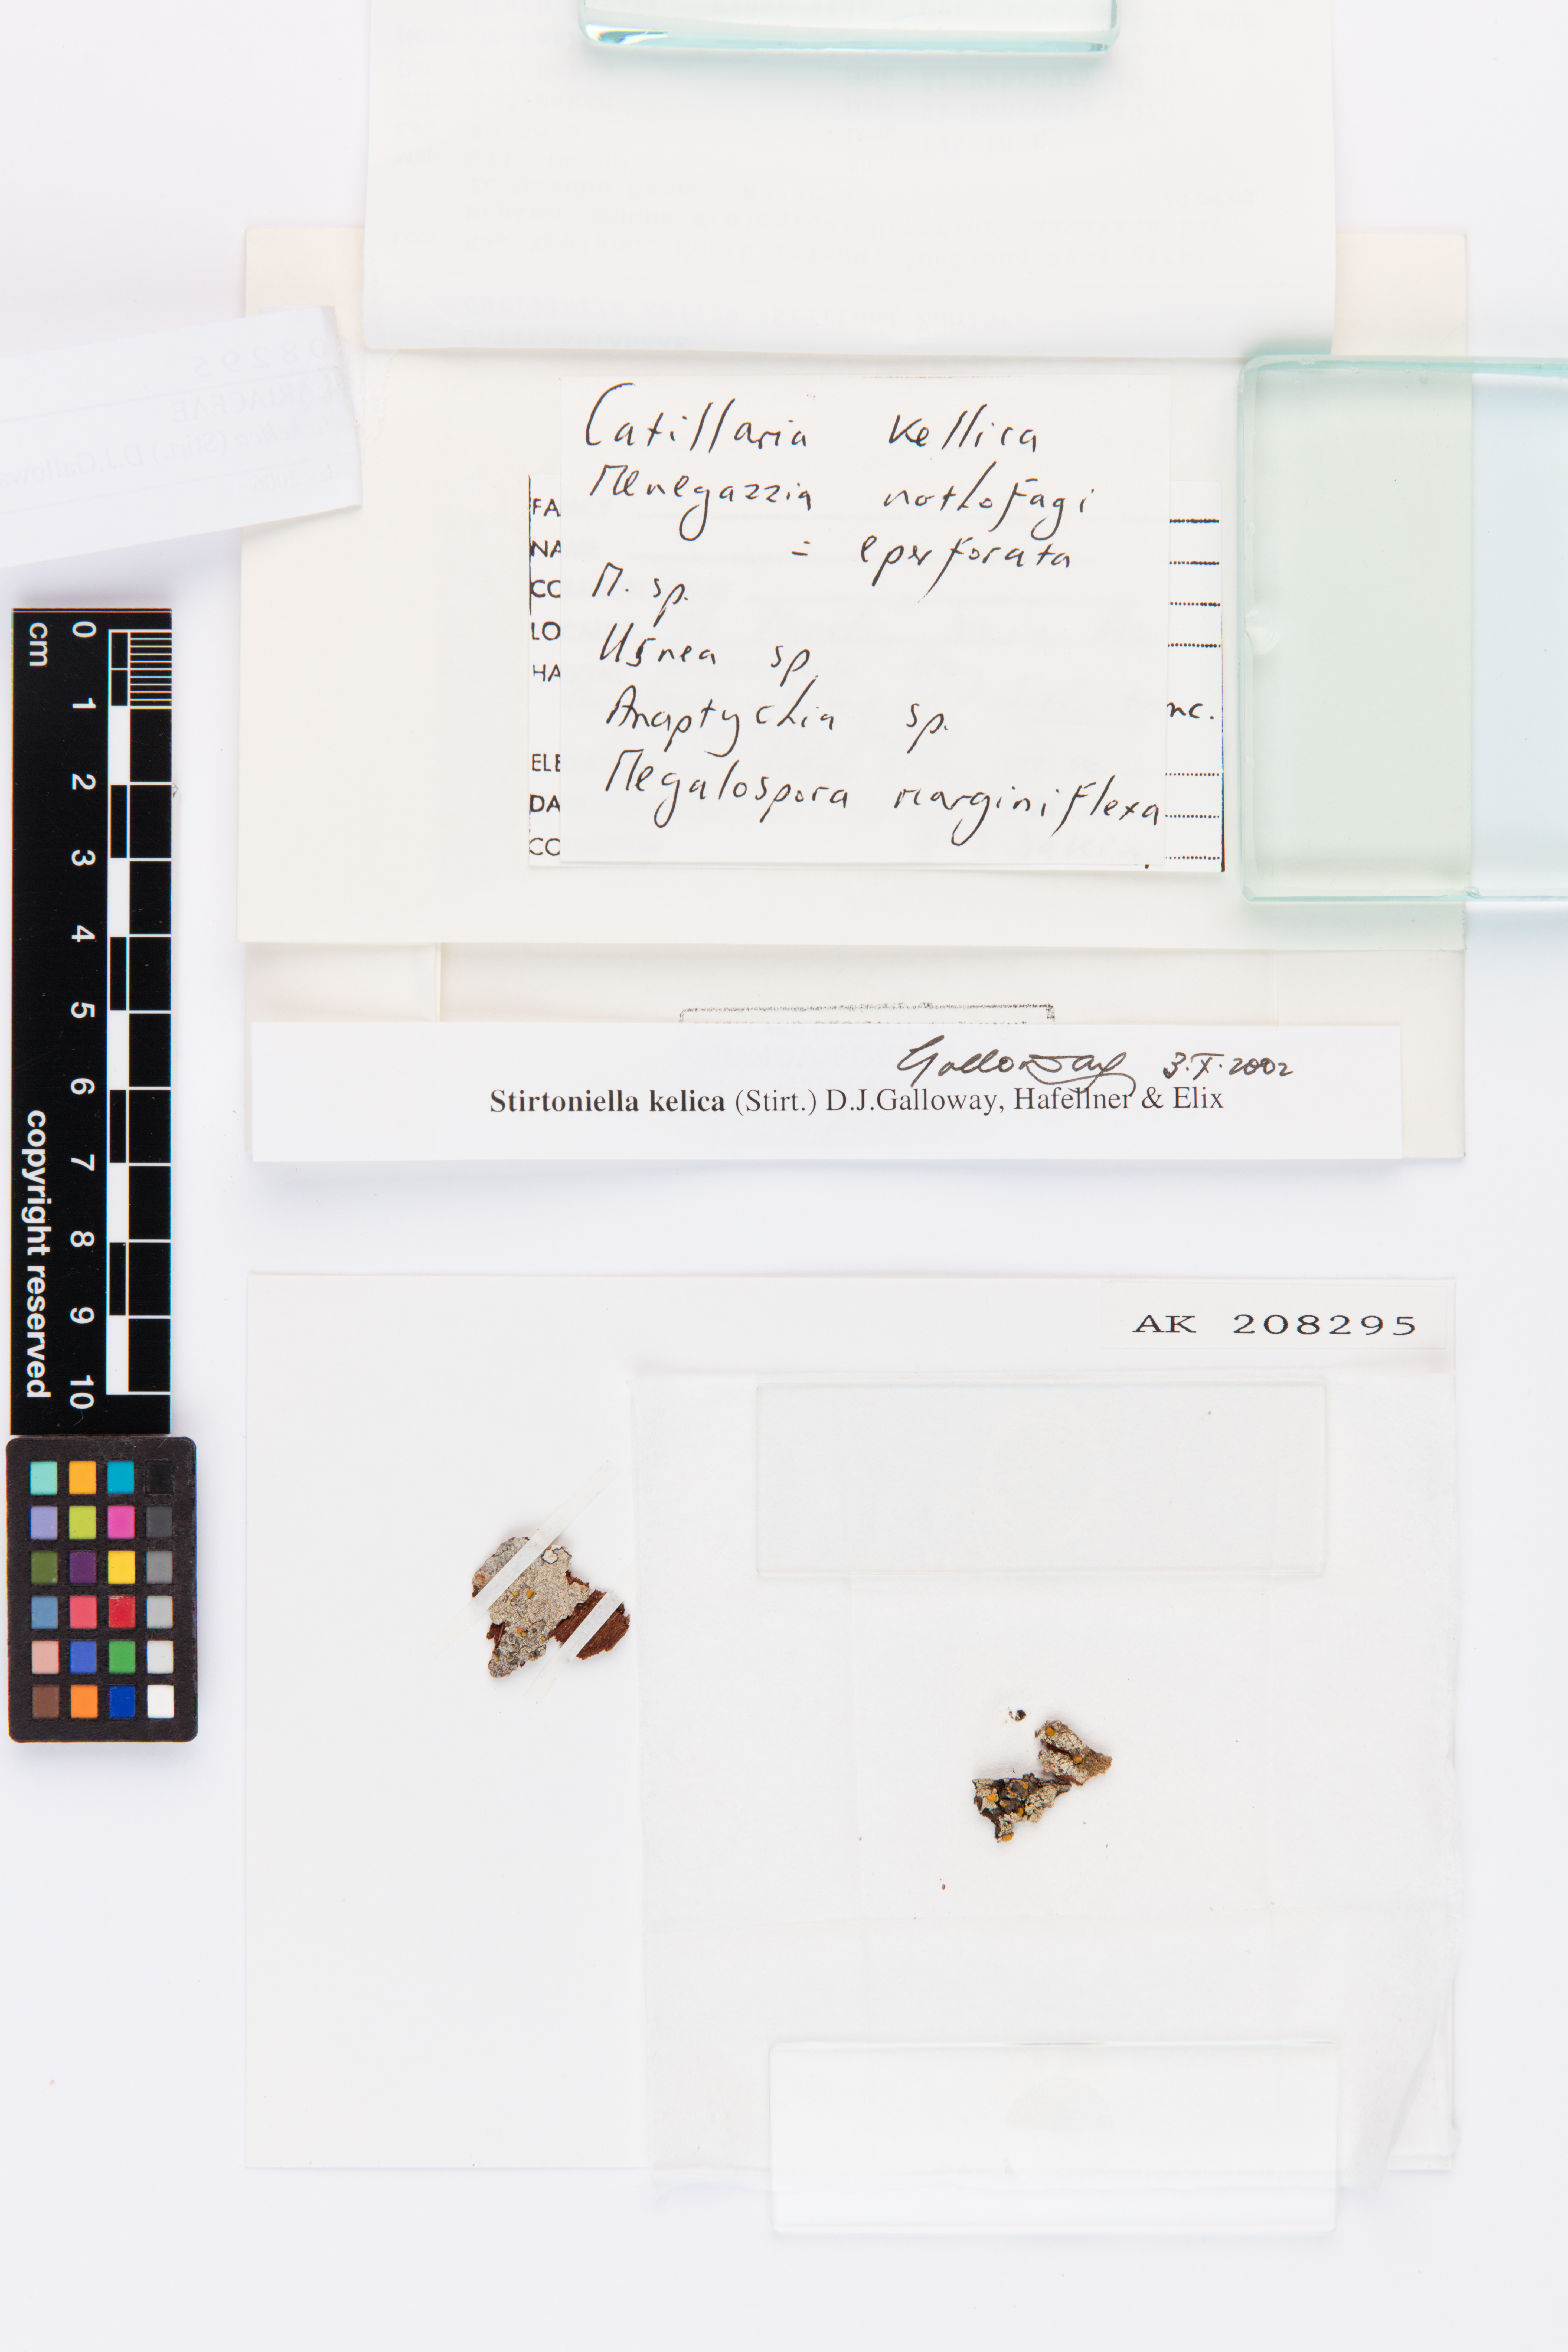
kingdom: Fungi
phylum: Ascomycota
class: Lecanoromycetes
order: Lecanorales
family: Ramalinaceae
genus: Stirtoniella
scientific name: Stirtoniella kelica
